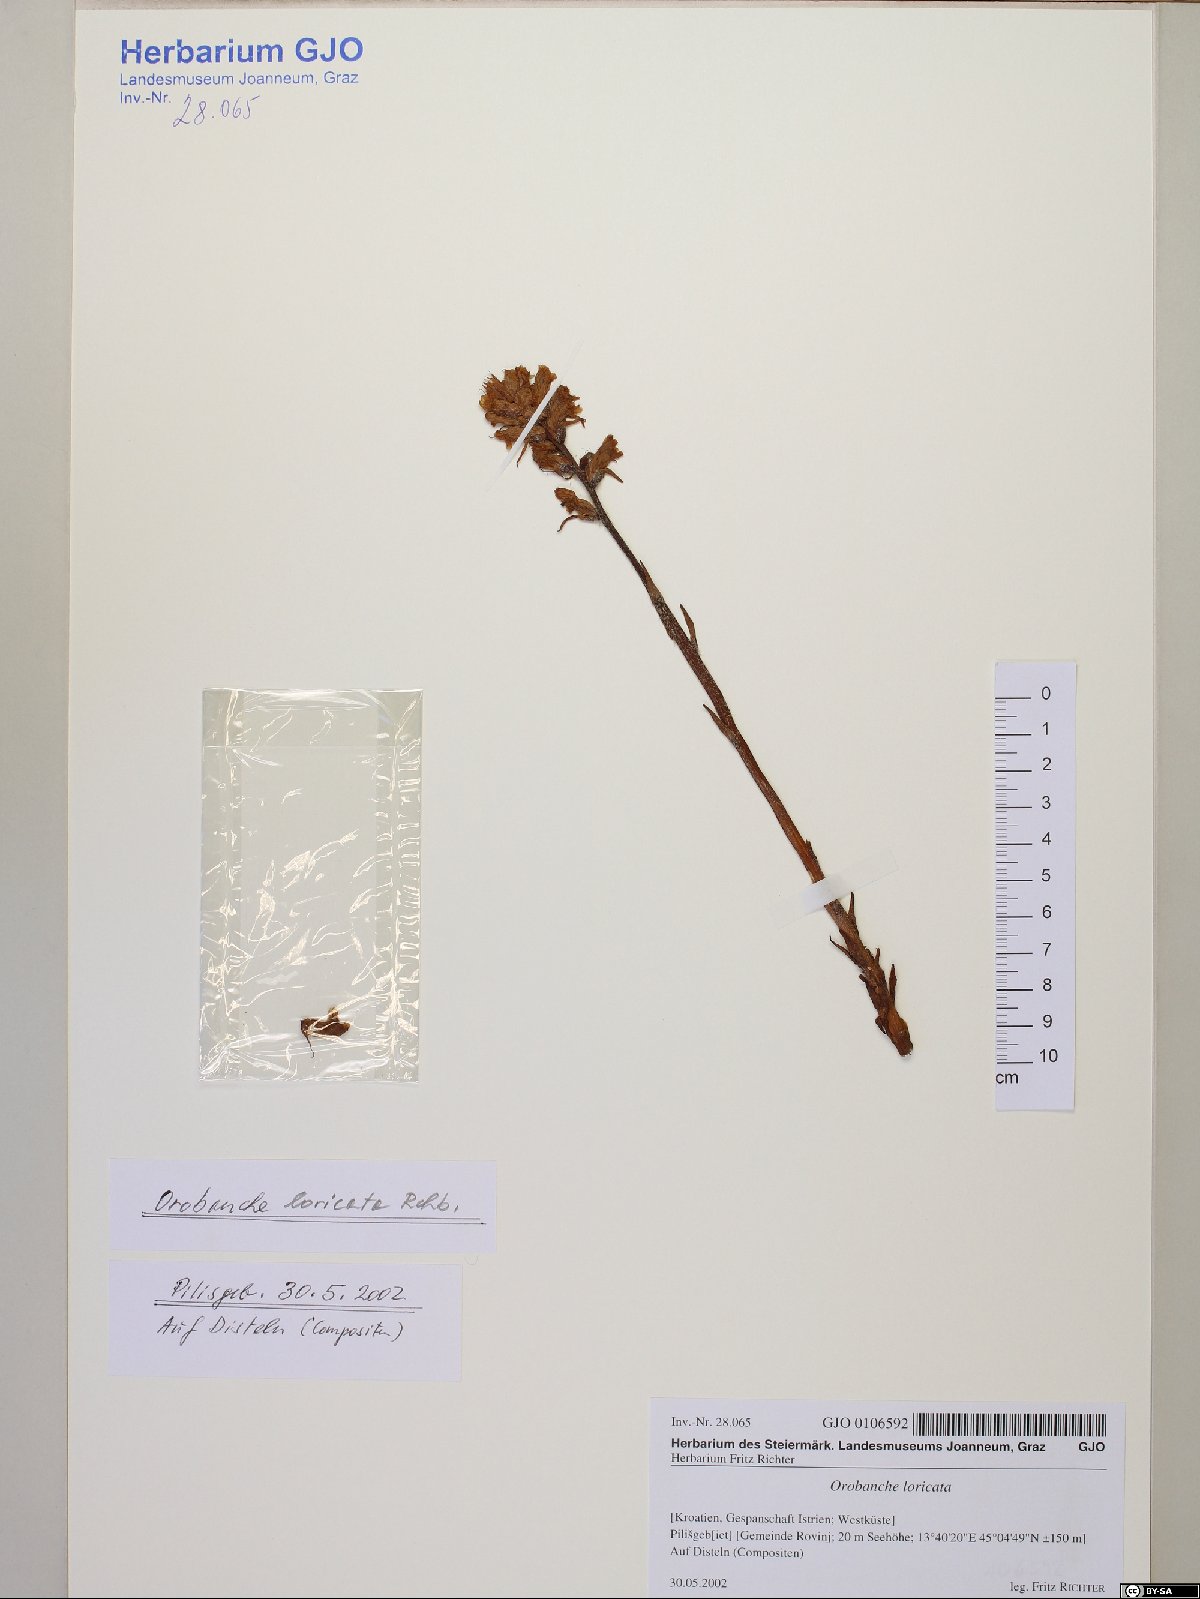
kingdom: Plantae
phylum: Tracheophyta
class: Magnoliopsida
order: Lamiales
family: Orobanchaceae
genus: Orobanche
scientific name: Orobanche artemisiae-campestris
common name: Oxtongue broomrape
